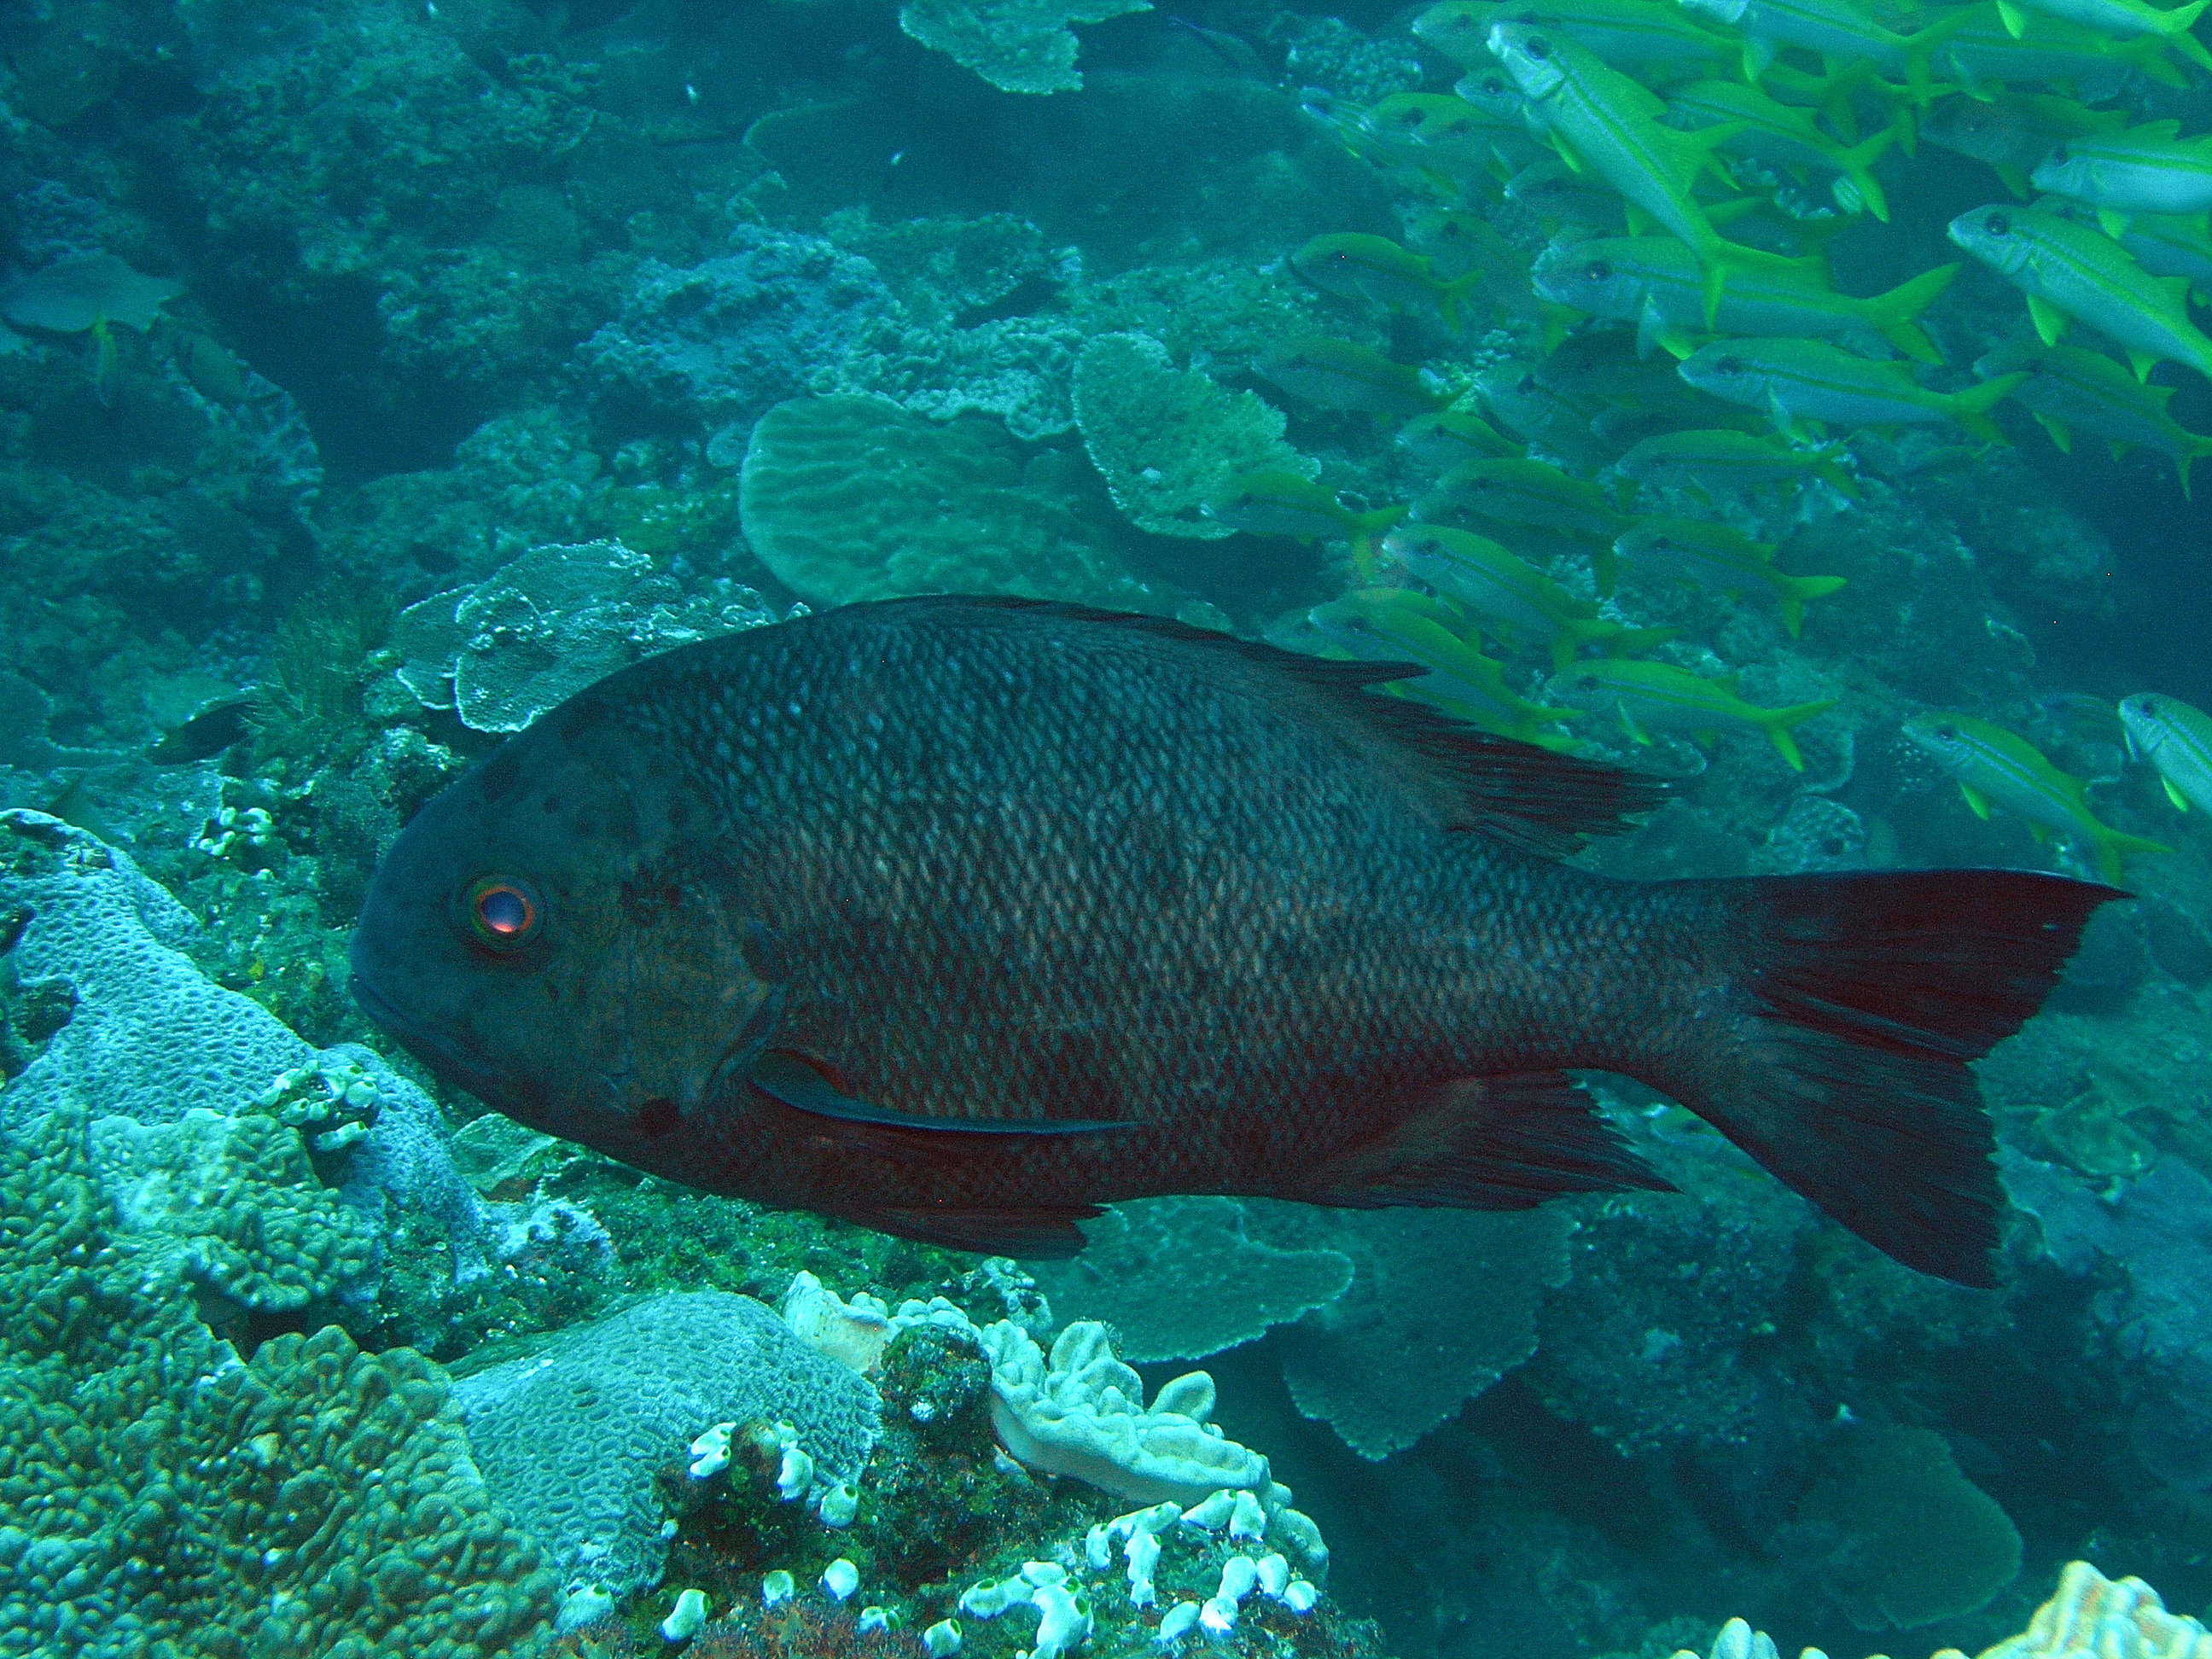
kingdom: Animalia
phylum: Chordata
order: Perciformes
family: Lutjanidae
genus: Macolor
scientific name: Macolor niger
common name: Black snapper
